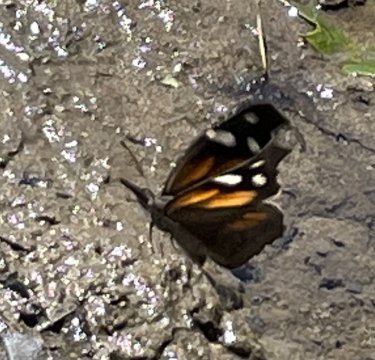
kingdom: Animalia
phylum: Arthropoda
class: Insecta
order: Lepidoptera
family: Nymphalidae
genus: Libytheana
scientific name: Libytheana carinenta
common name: American Snout
